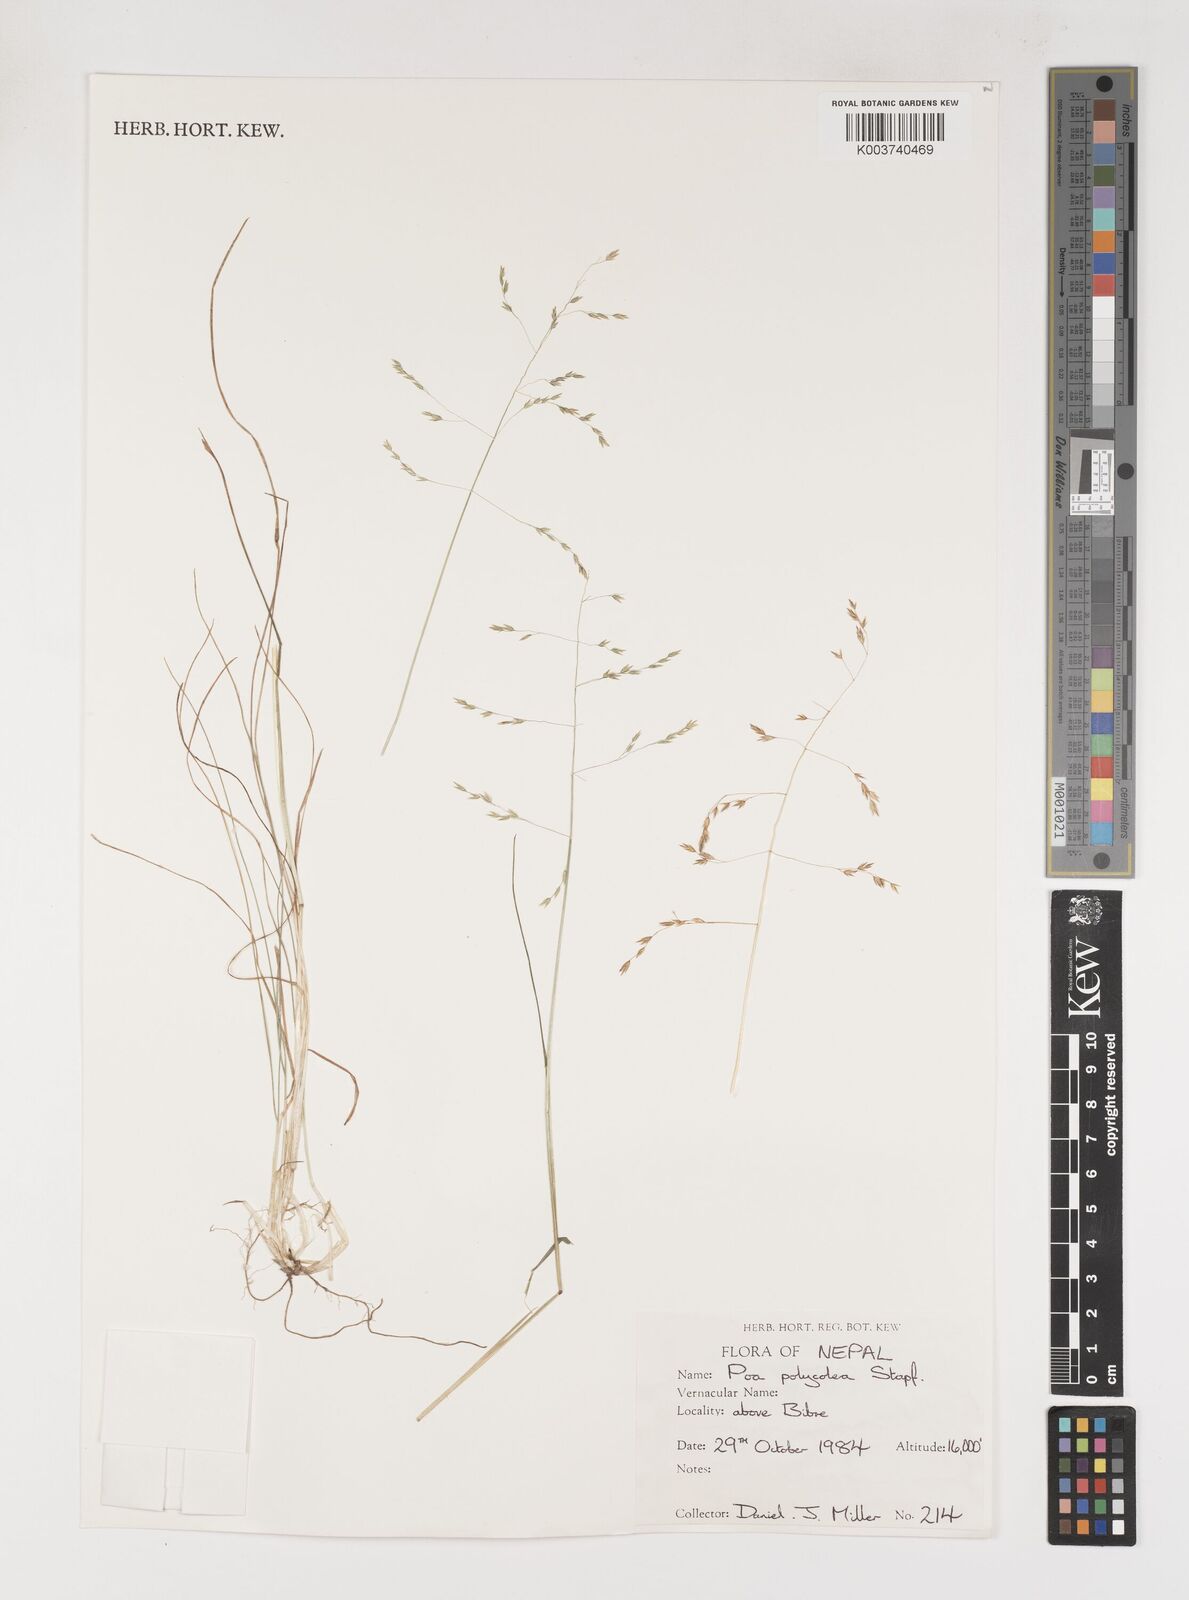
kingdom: Plantae
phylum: Tracheophyta
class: Liliopsida
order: Poales
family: Poaceae
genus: Poa
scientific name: Poa polycolea
